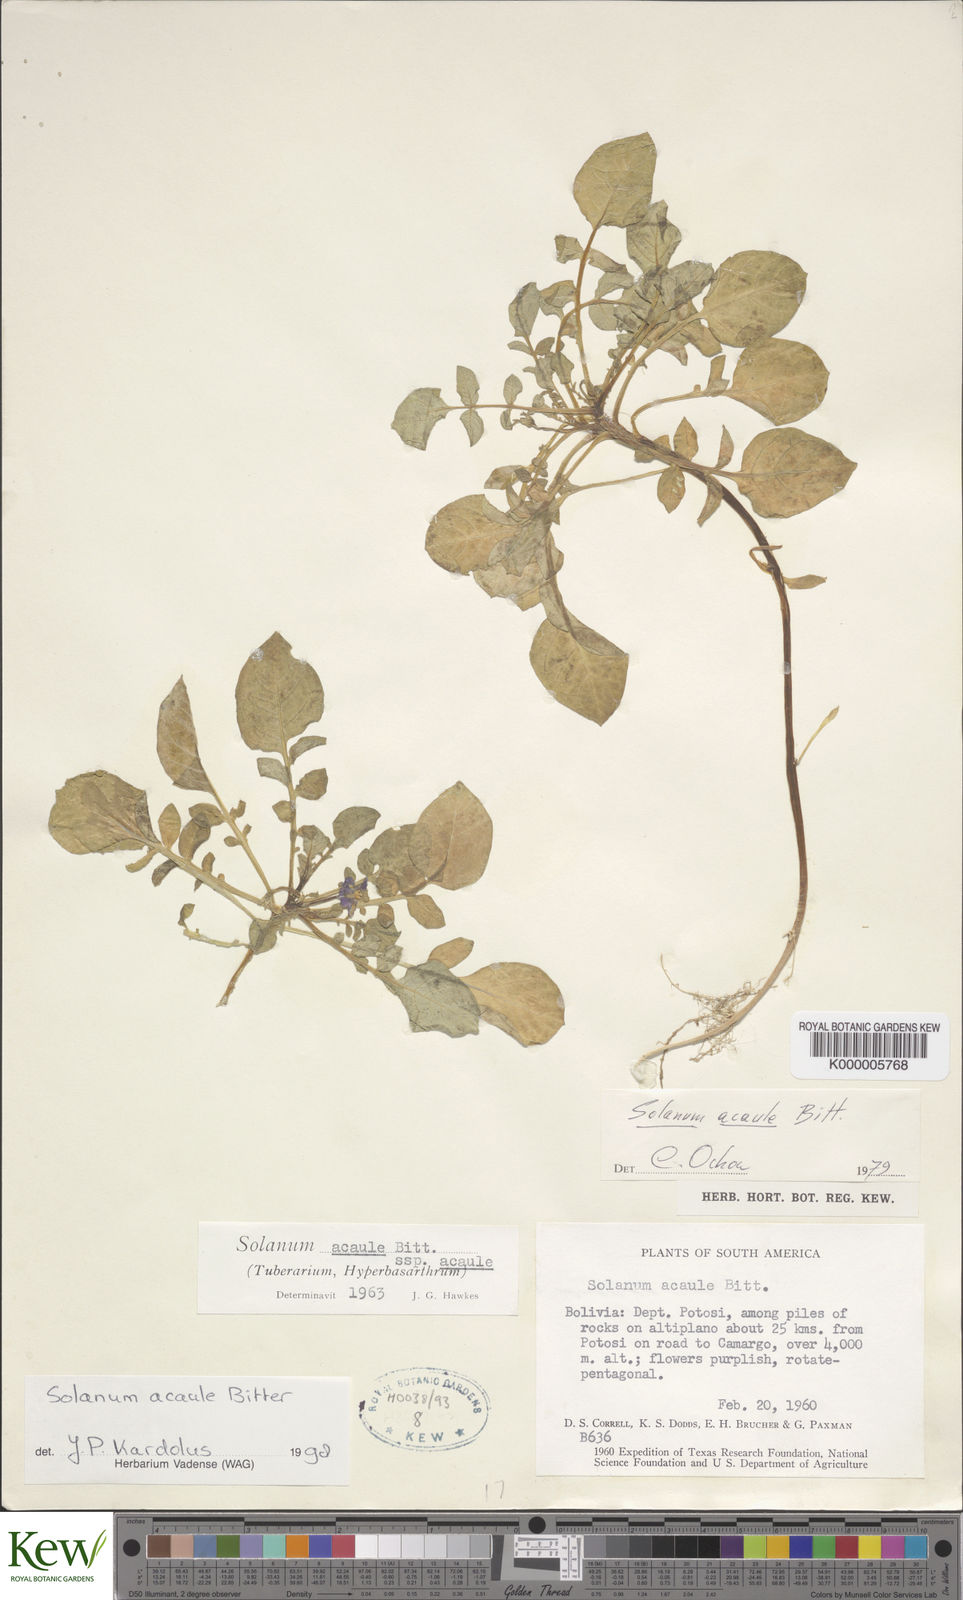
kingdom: Plantae
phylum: Tracheophyta
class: Magnoliopsida
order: Solanales
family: Solanaceae
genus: Solanum
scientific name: Solanum acaule
